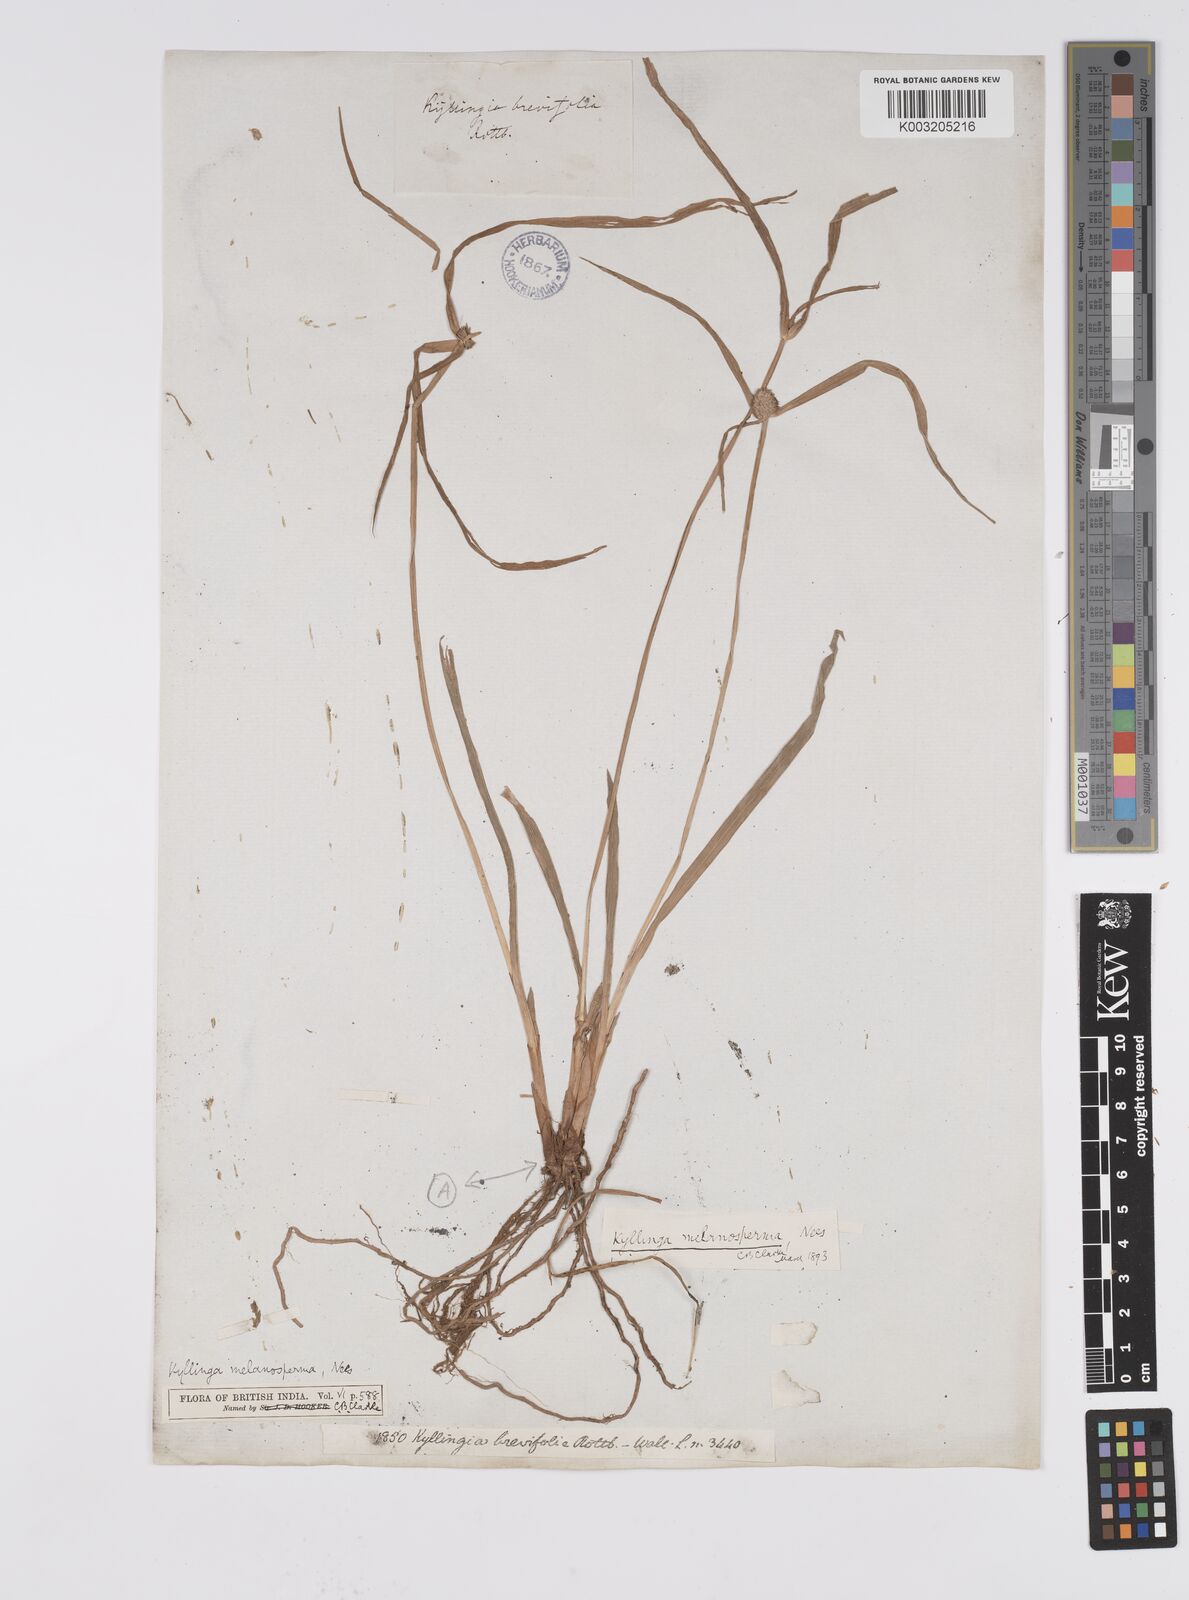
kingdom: Plantae
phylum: Tracheophyta
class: Liliopsida
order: Poales
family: Cyperaceae
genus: Cyperus
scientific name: Cyperus melanospermus
